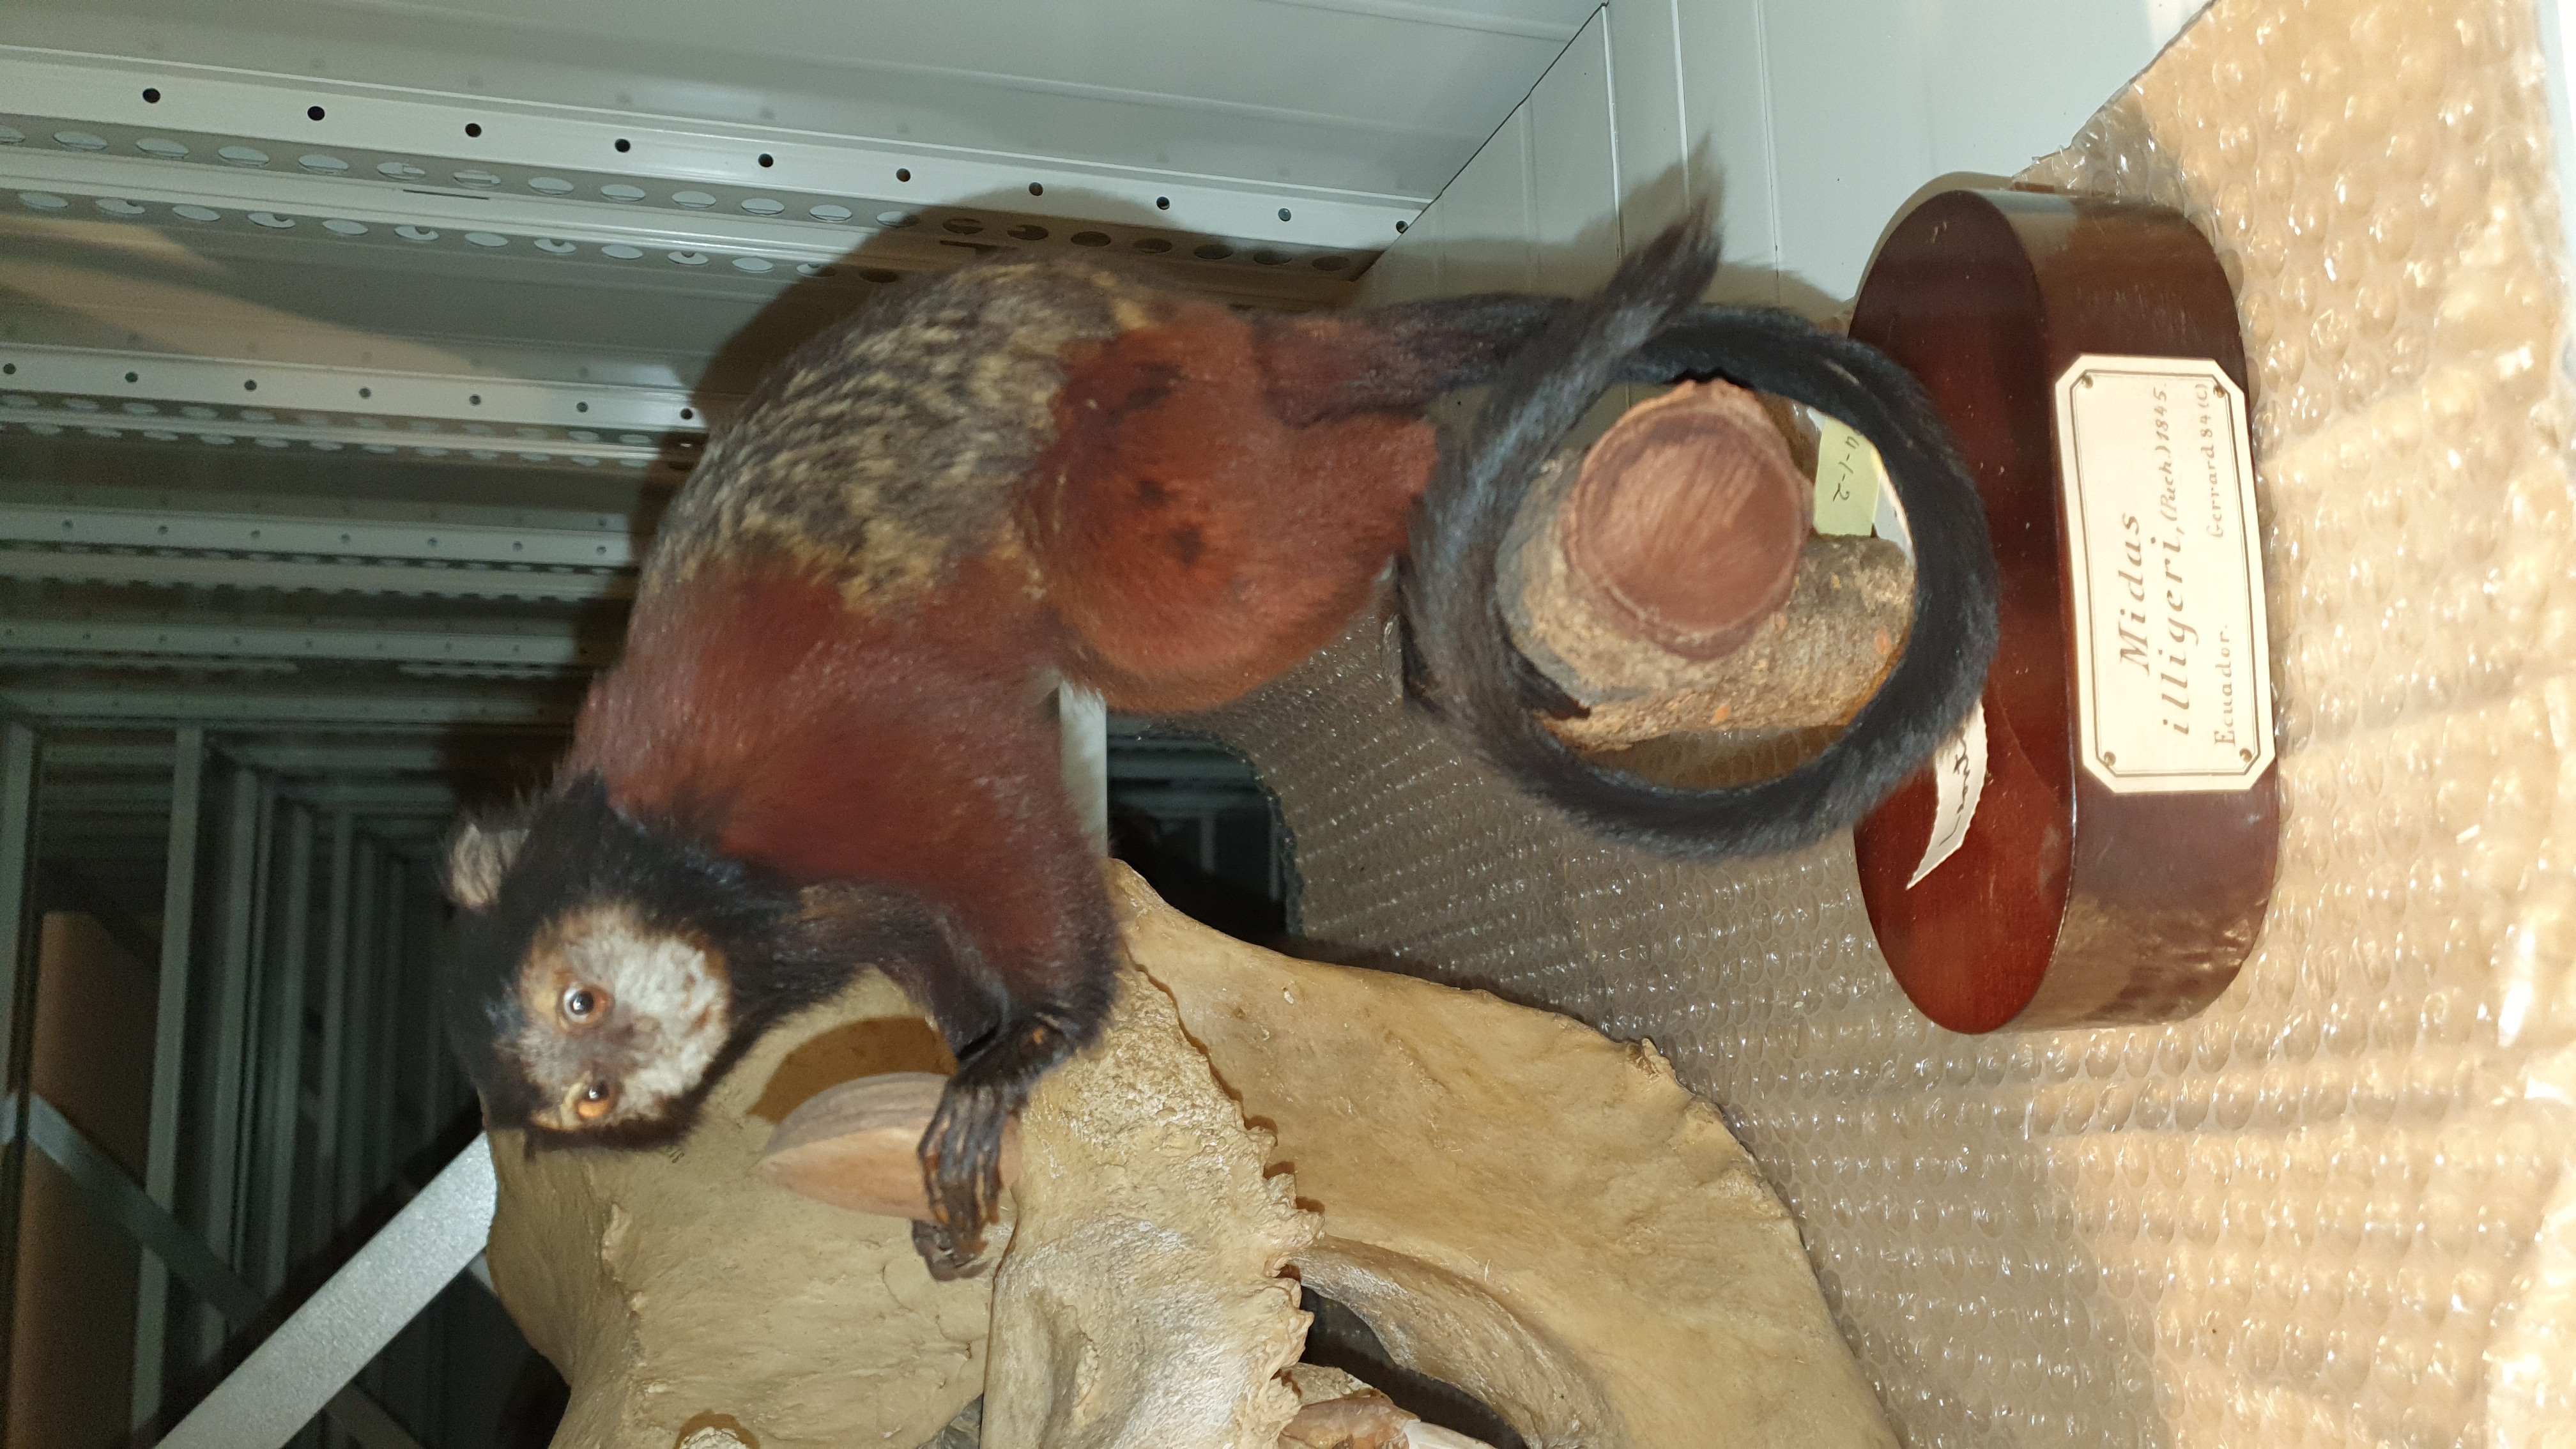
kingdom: Animalia
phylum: Chordata
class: Mammalia
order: Primates
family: Callitrichidae
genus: Leontocebus
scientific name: Leontocebus illigeri
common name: Illiger's saddle-back tamarin
